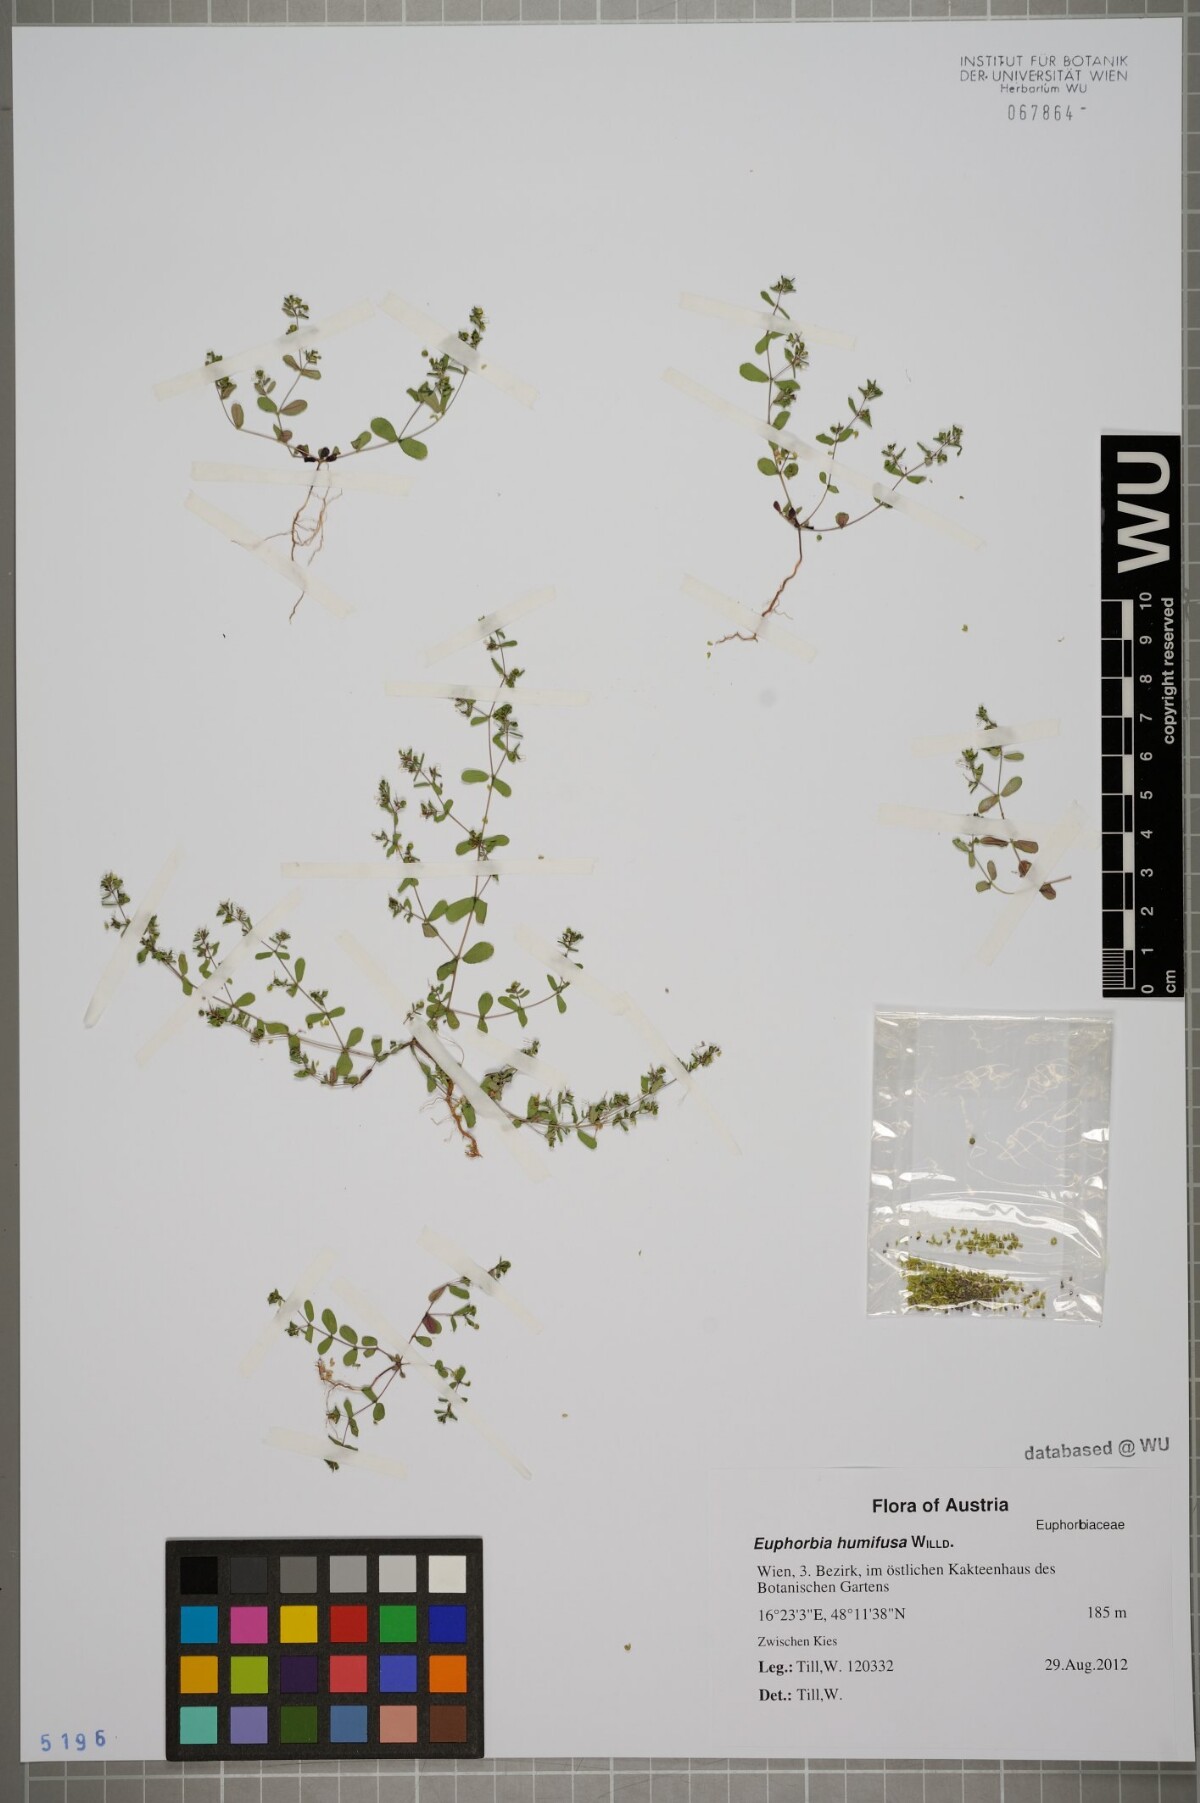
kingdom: Plantae
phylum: Tracheophyta
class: Magnoliopsida
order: Malpighiales
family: Euphorbiaceae
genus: Euphorbia
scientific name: Euphorbia humifusa
